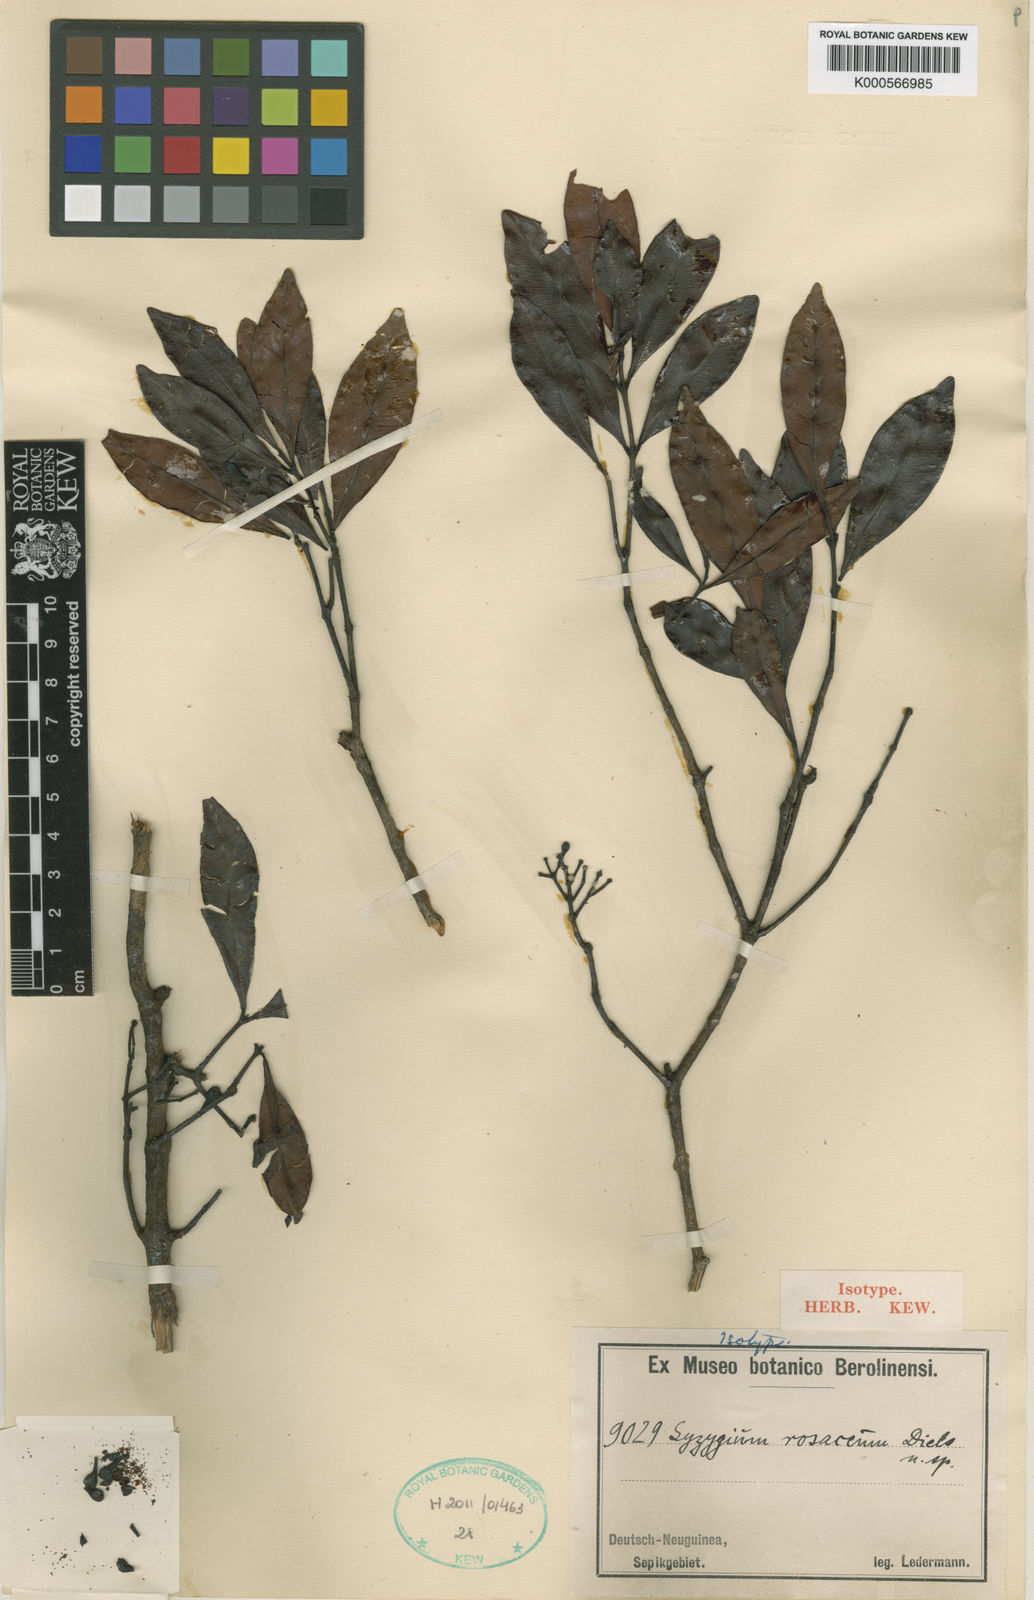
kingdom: Plantae
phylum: Tracheophyta
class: Magnoliopsida
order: Myrtales
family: Myrtaceae
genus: Syzygium
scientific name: Syzygium rosaceum
